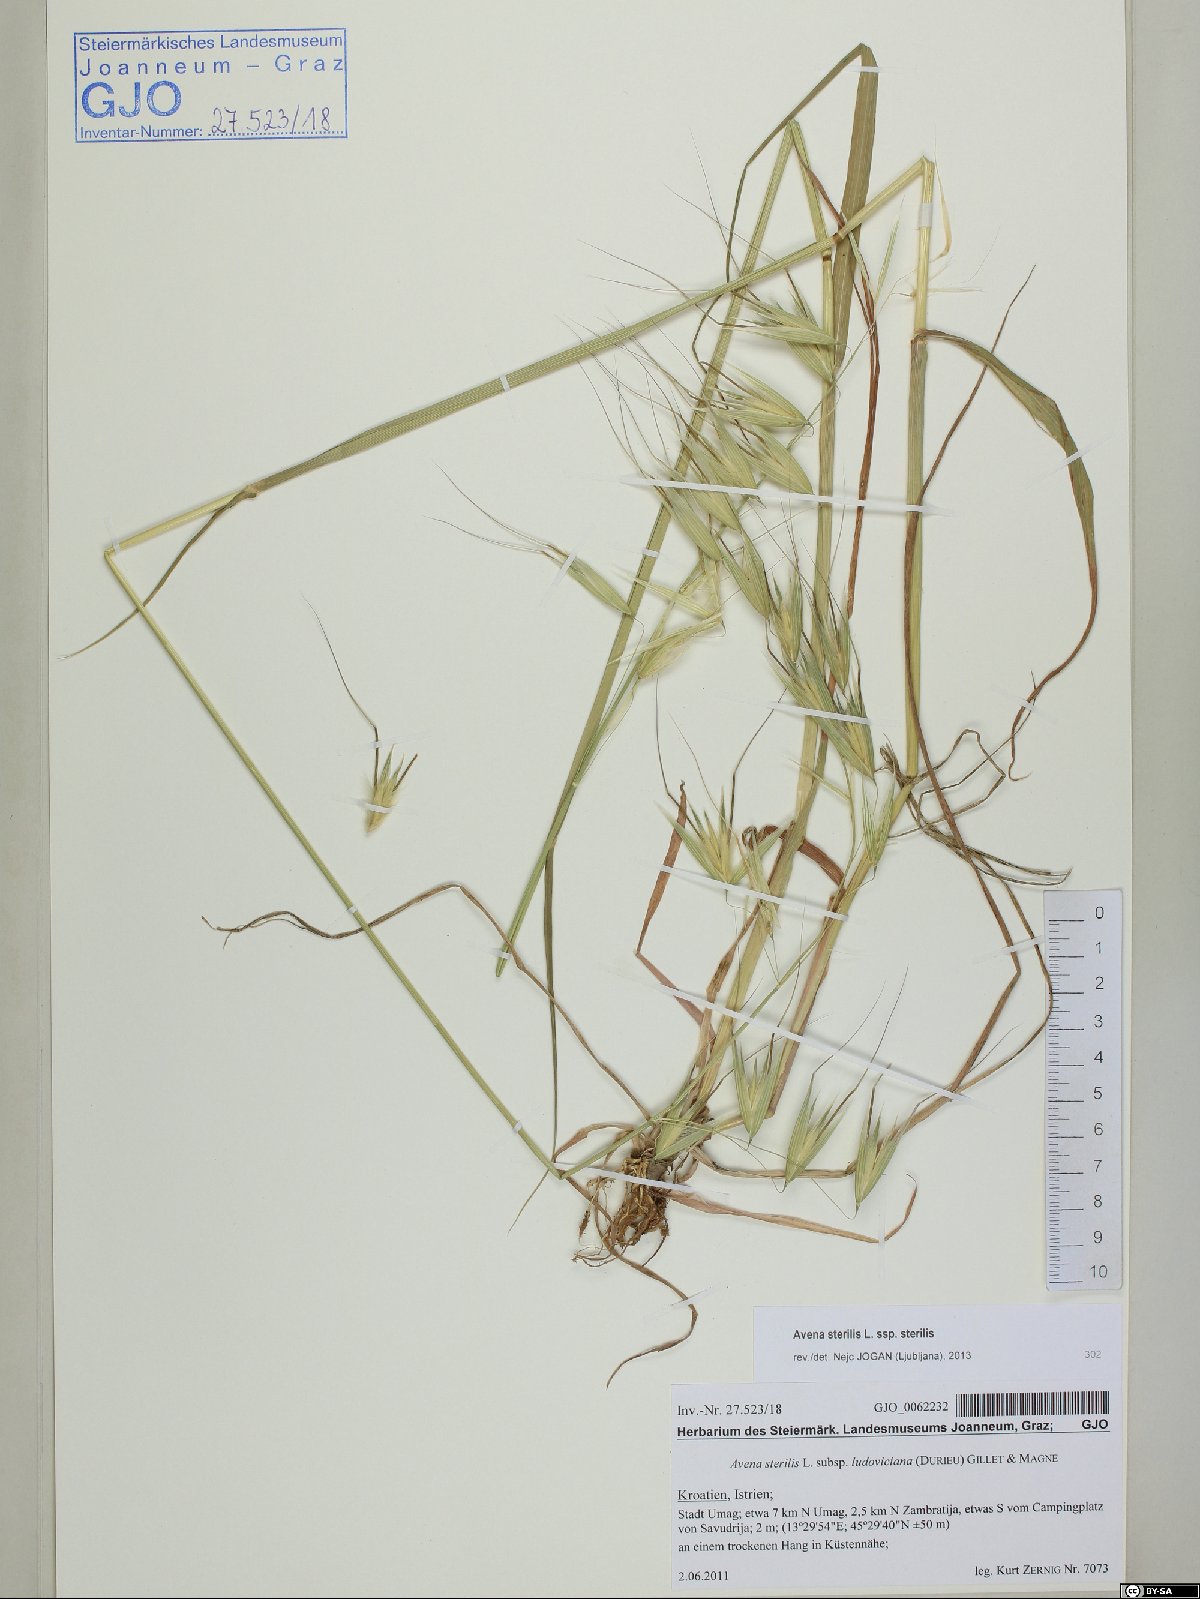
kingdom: Plantae
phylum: Tracheophyta
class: Liliopsida
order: Poales
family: Poaceae
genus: Avena
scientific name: Avena sterilis
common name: Animated oat
